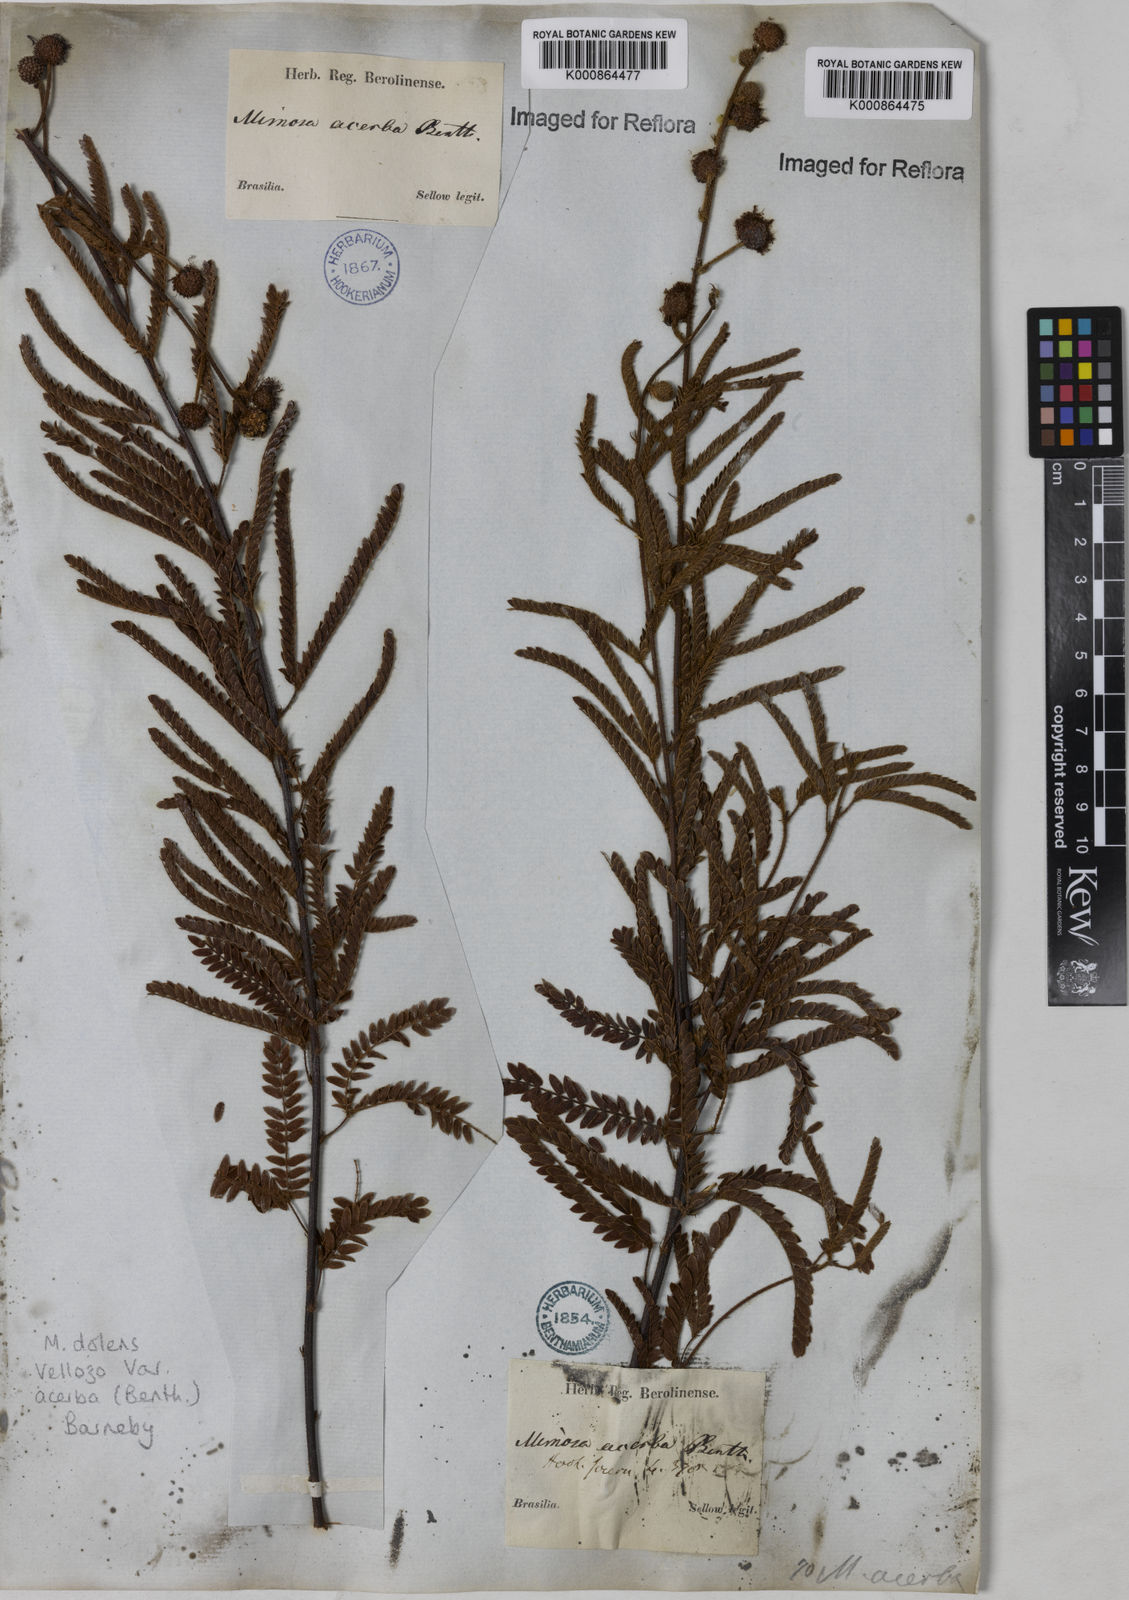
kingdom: Plantae
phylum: Tracheophyta
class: Magnoliopsida
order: Fabales
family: Fabaceae
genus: Mimosa
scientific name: Mimosa dolens
